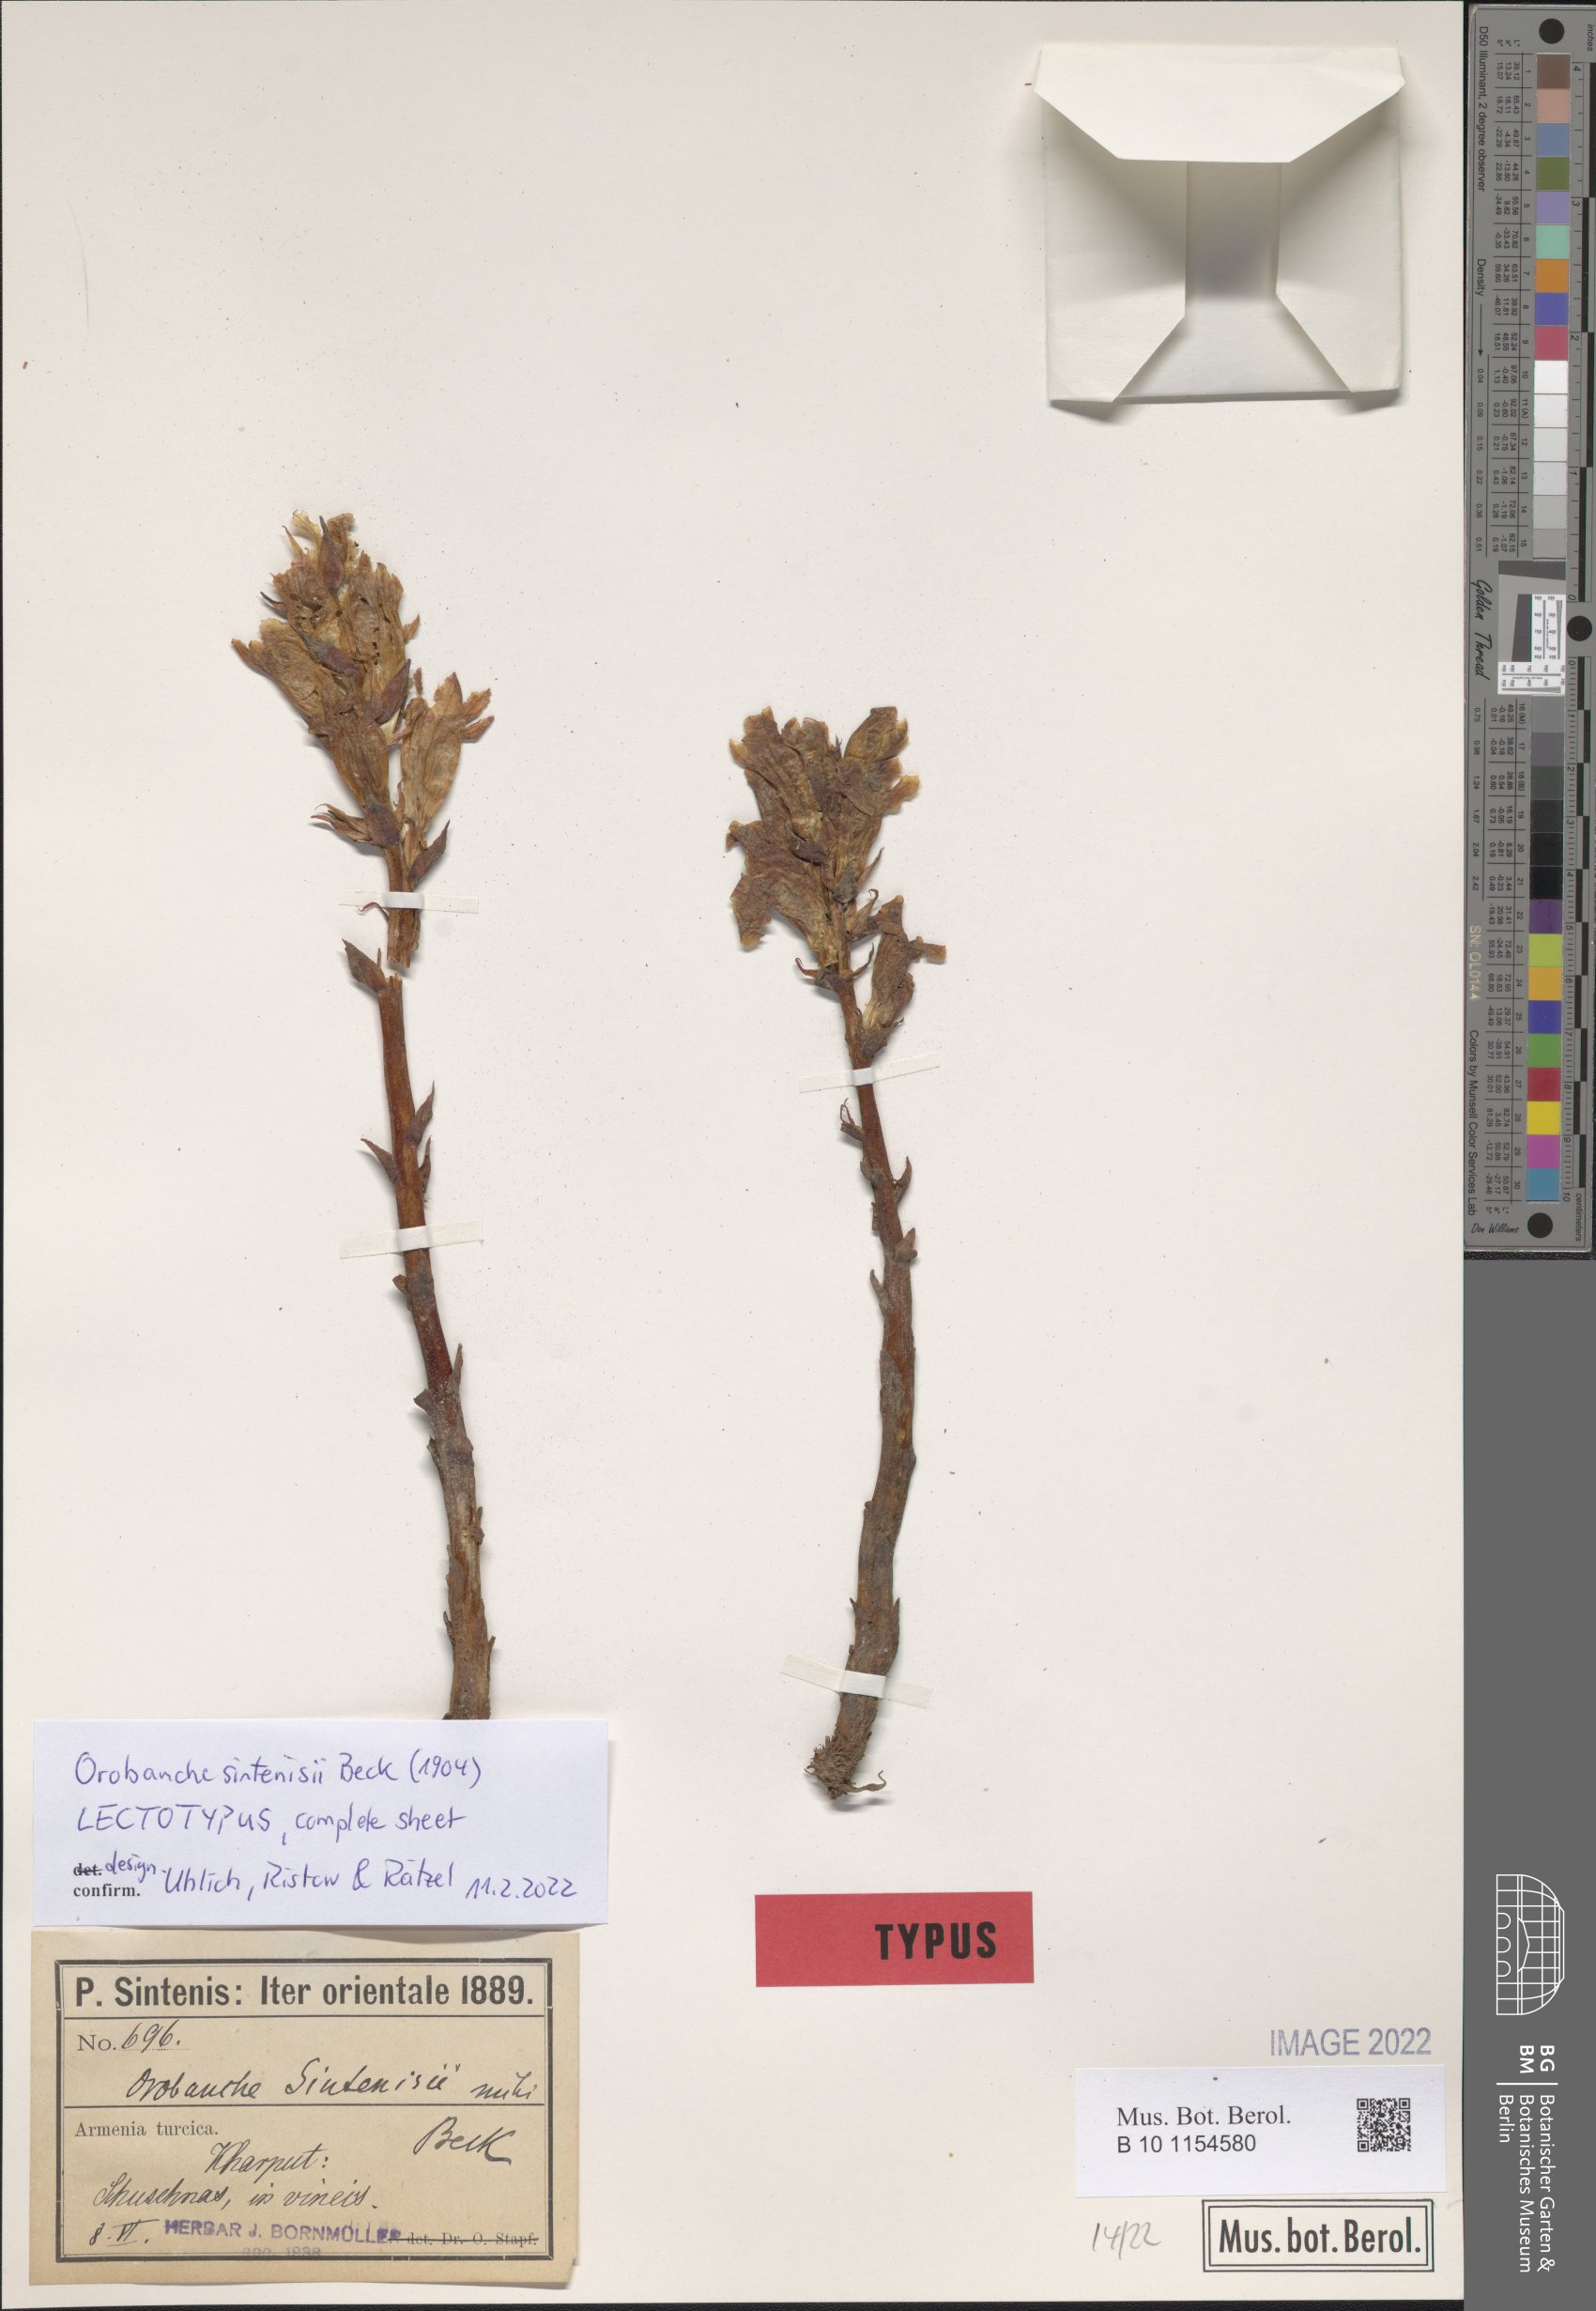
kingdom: Plantae
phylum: Tracheophyta
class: Magnoliopsida
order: Lamiales
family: Orobanchaceae
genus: Orobanche
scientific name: Orobanche sintenisii
